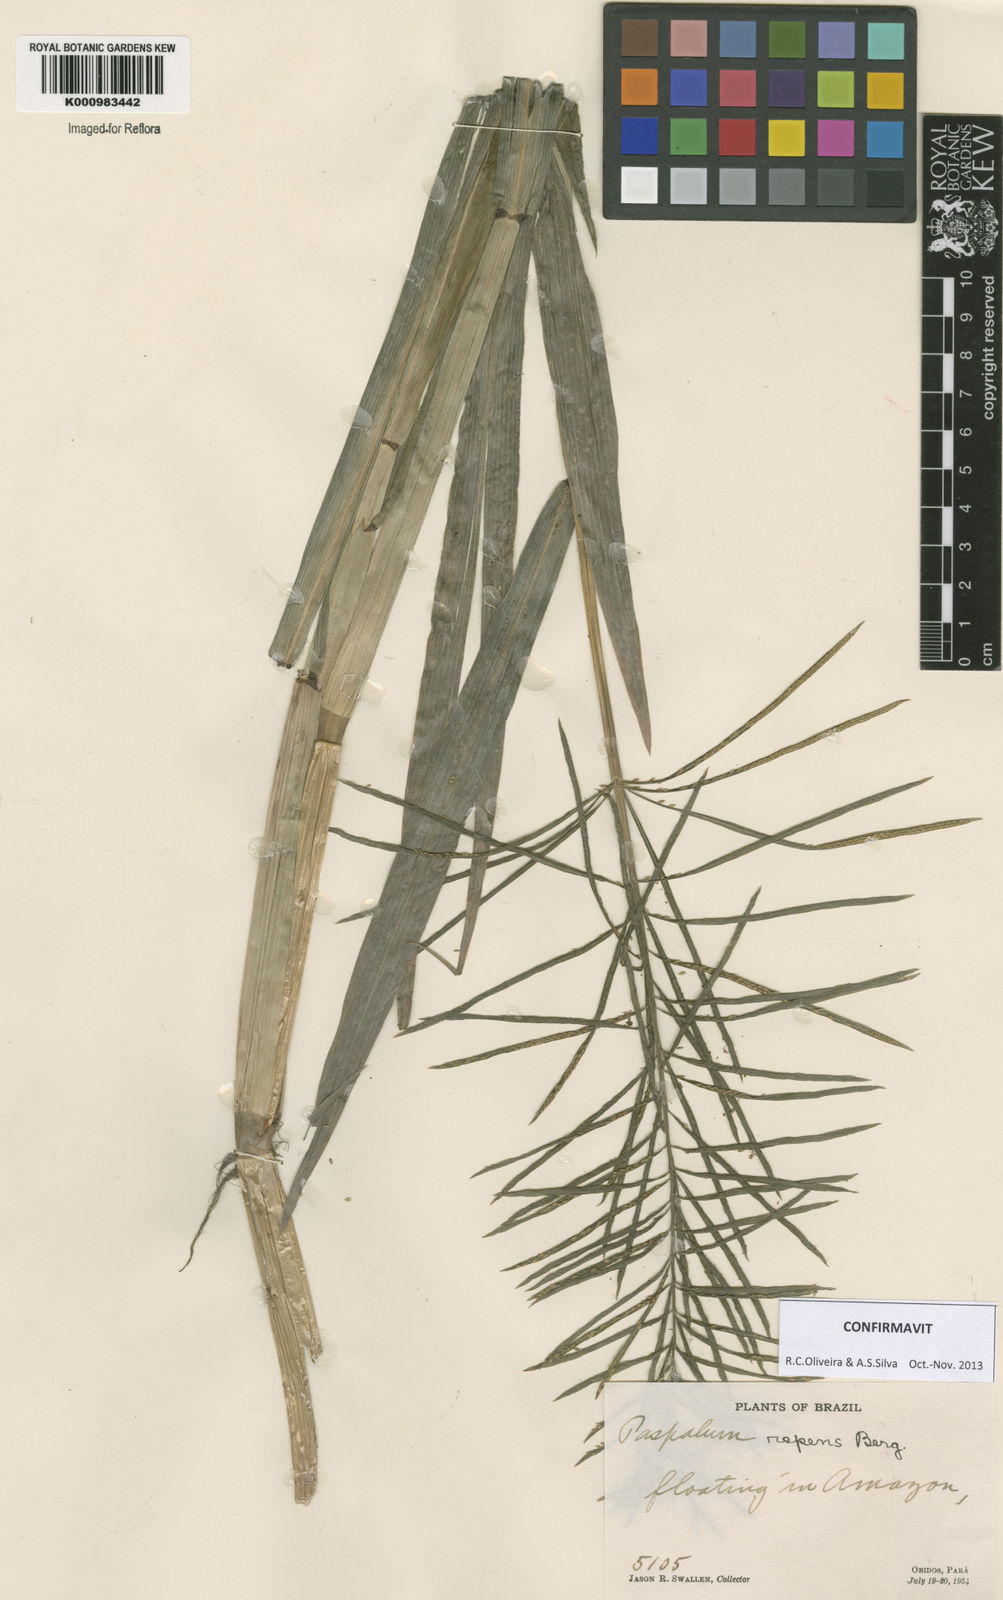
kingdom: Plantae
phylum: Tracheophyta
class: Liliopsida
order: Poales
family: Poaceae
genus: Paspalum
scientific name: Paspalum repens
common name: Water paspalum
